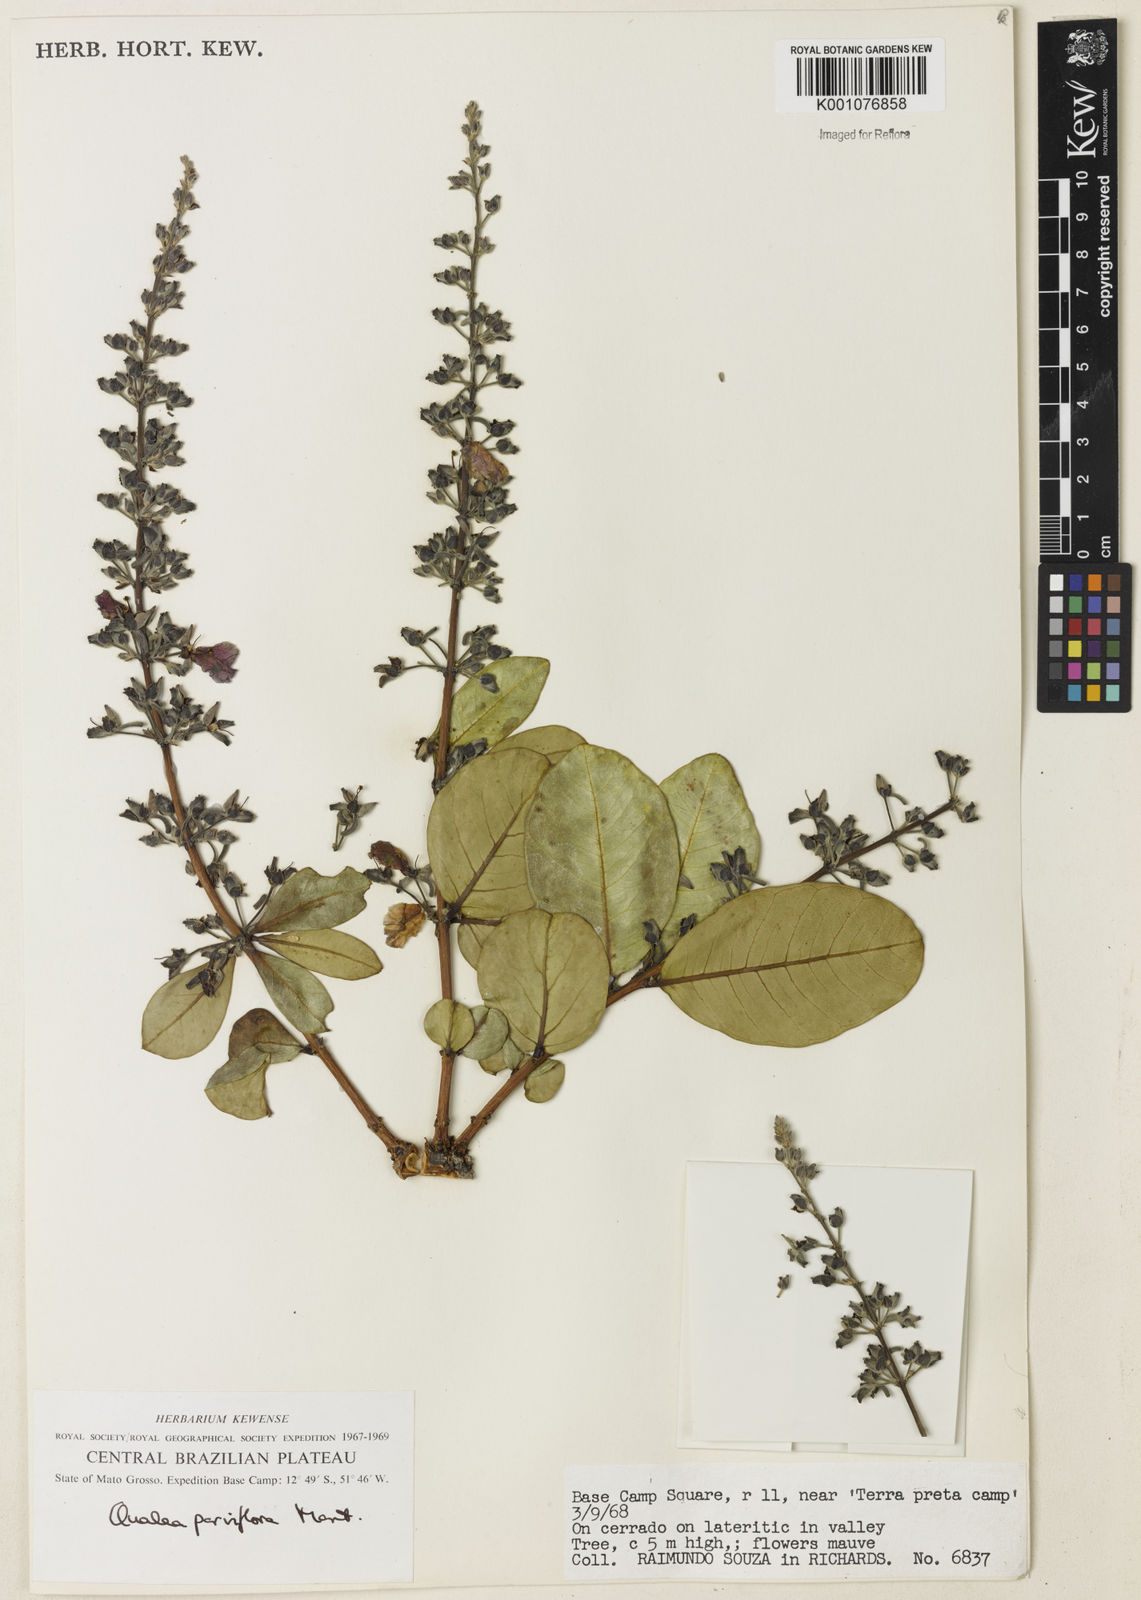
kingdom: Plantae
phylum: Tracheophyta
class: Magnoliopsida
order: Myrtales
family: Vochysiaceae
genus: Qualea
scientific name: Qualea parviflora
